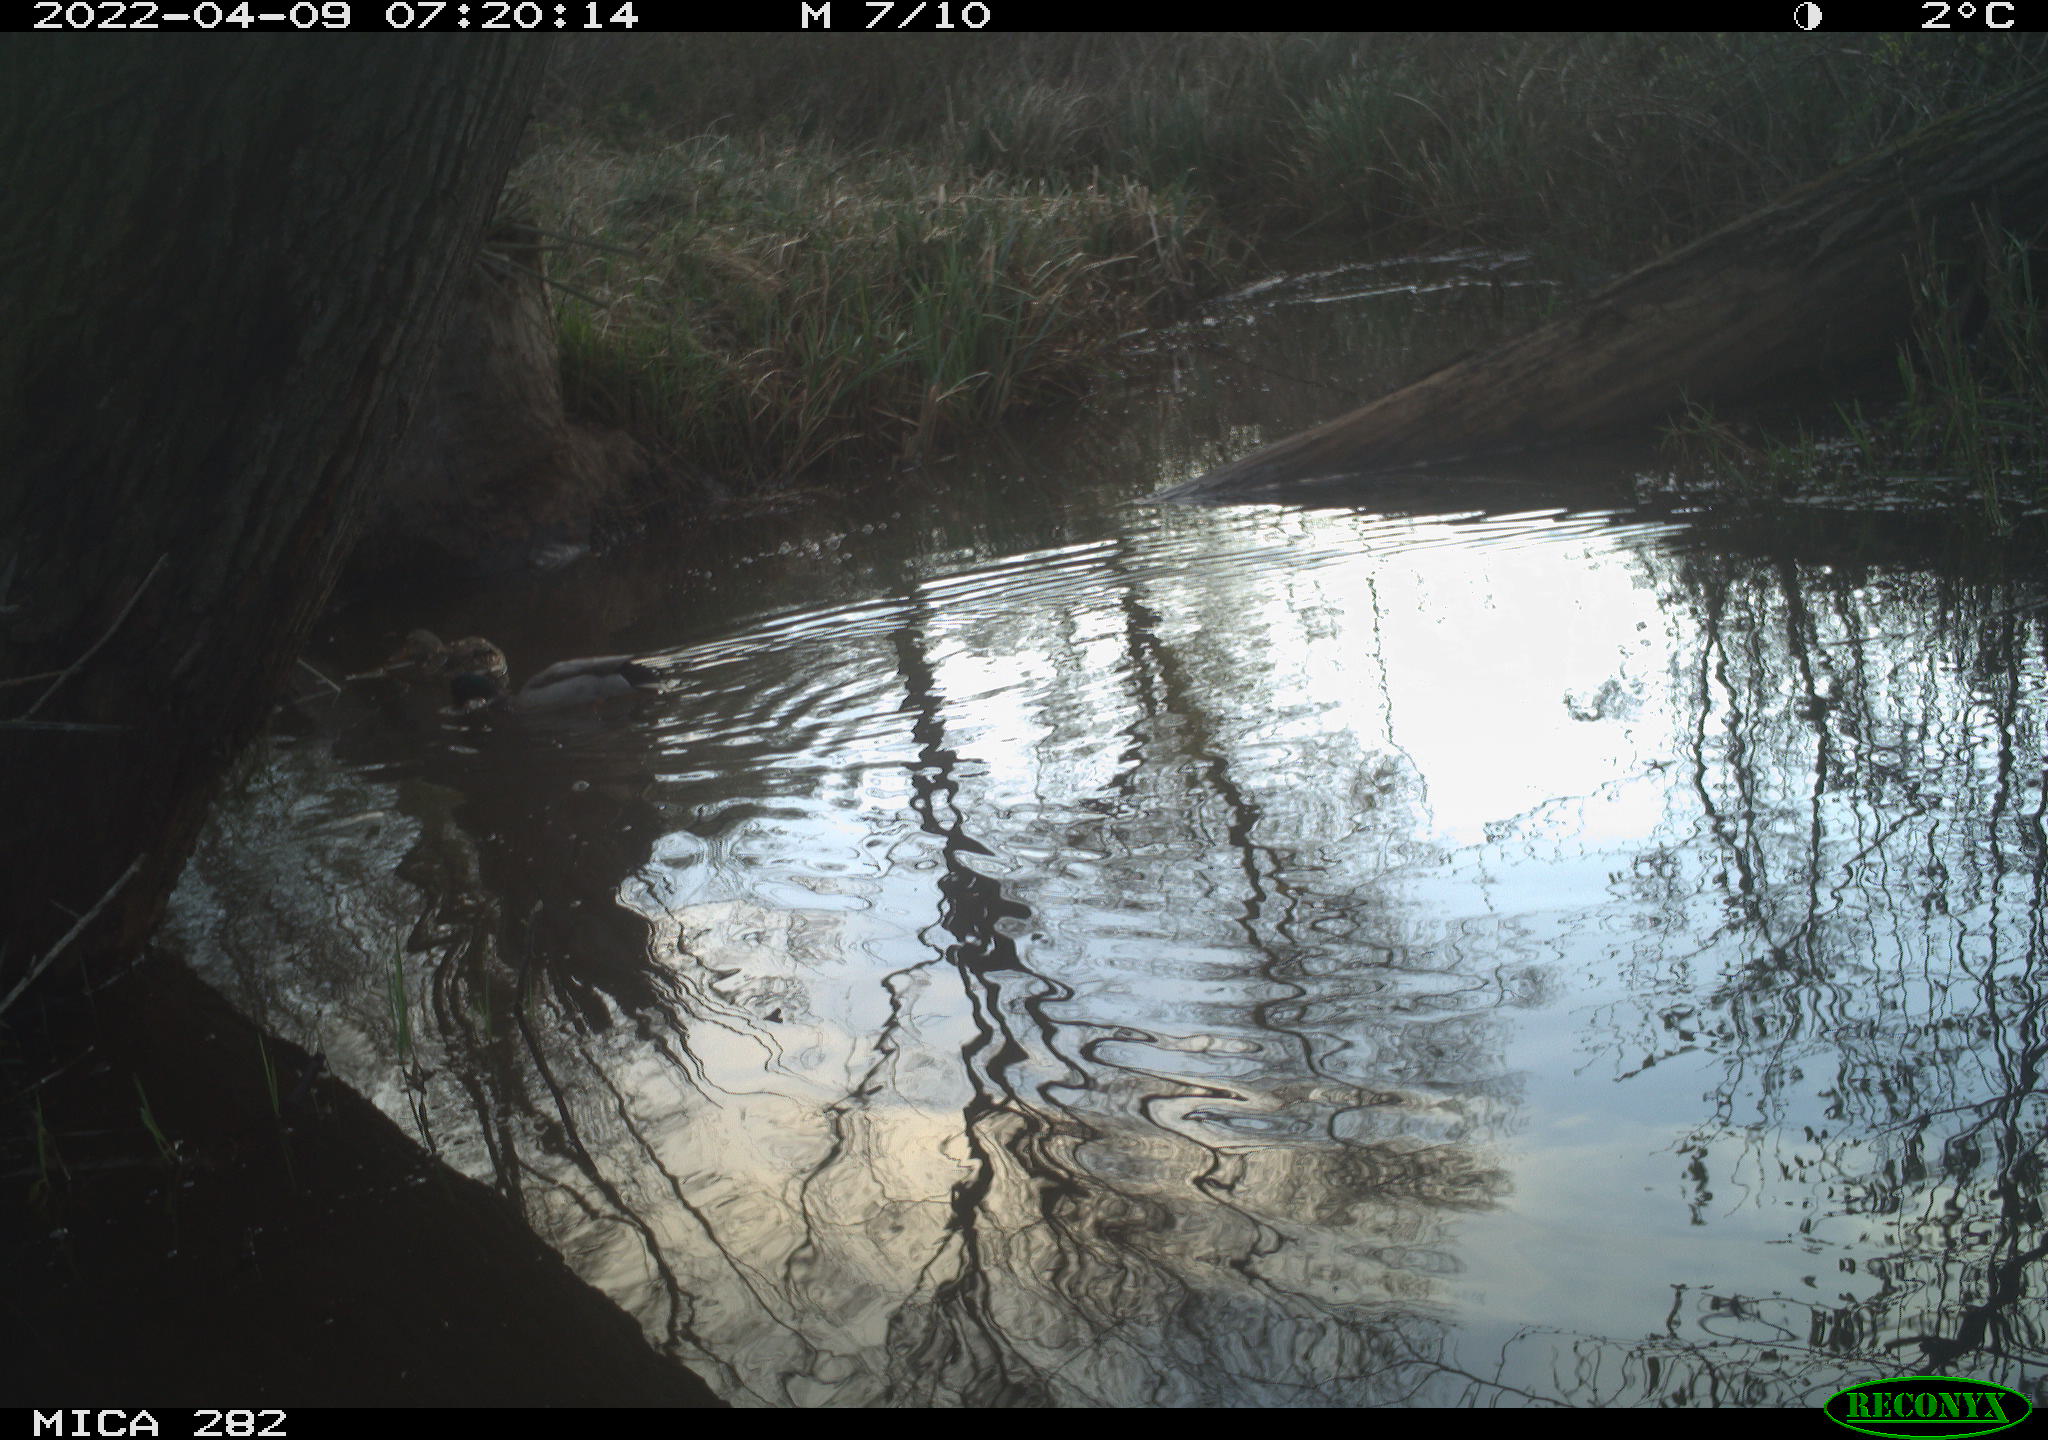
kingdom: Animalia
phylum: Chordata
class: Aves
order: Anseriformes
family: Anatidae
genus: Anas
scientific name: Anas platyrhynchos
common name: Mallard
